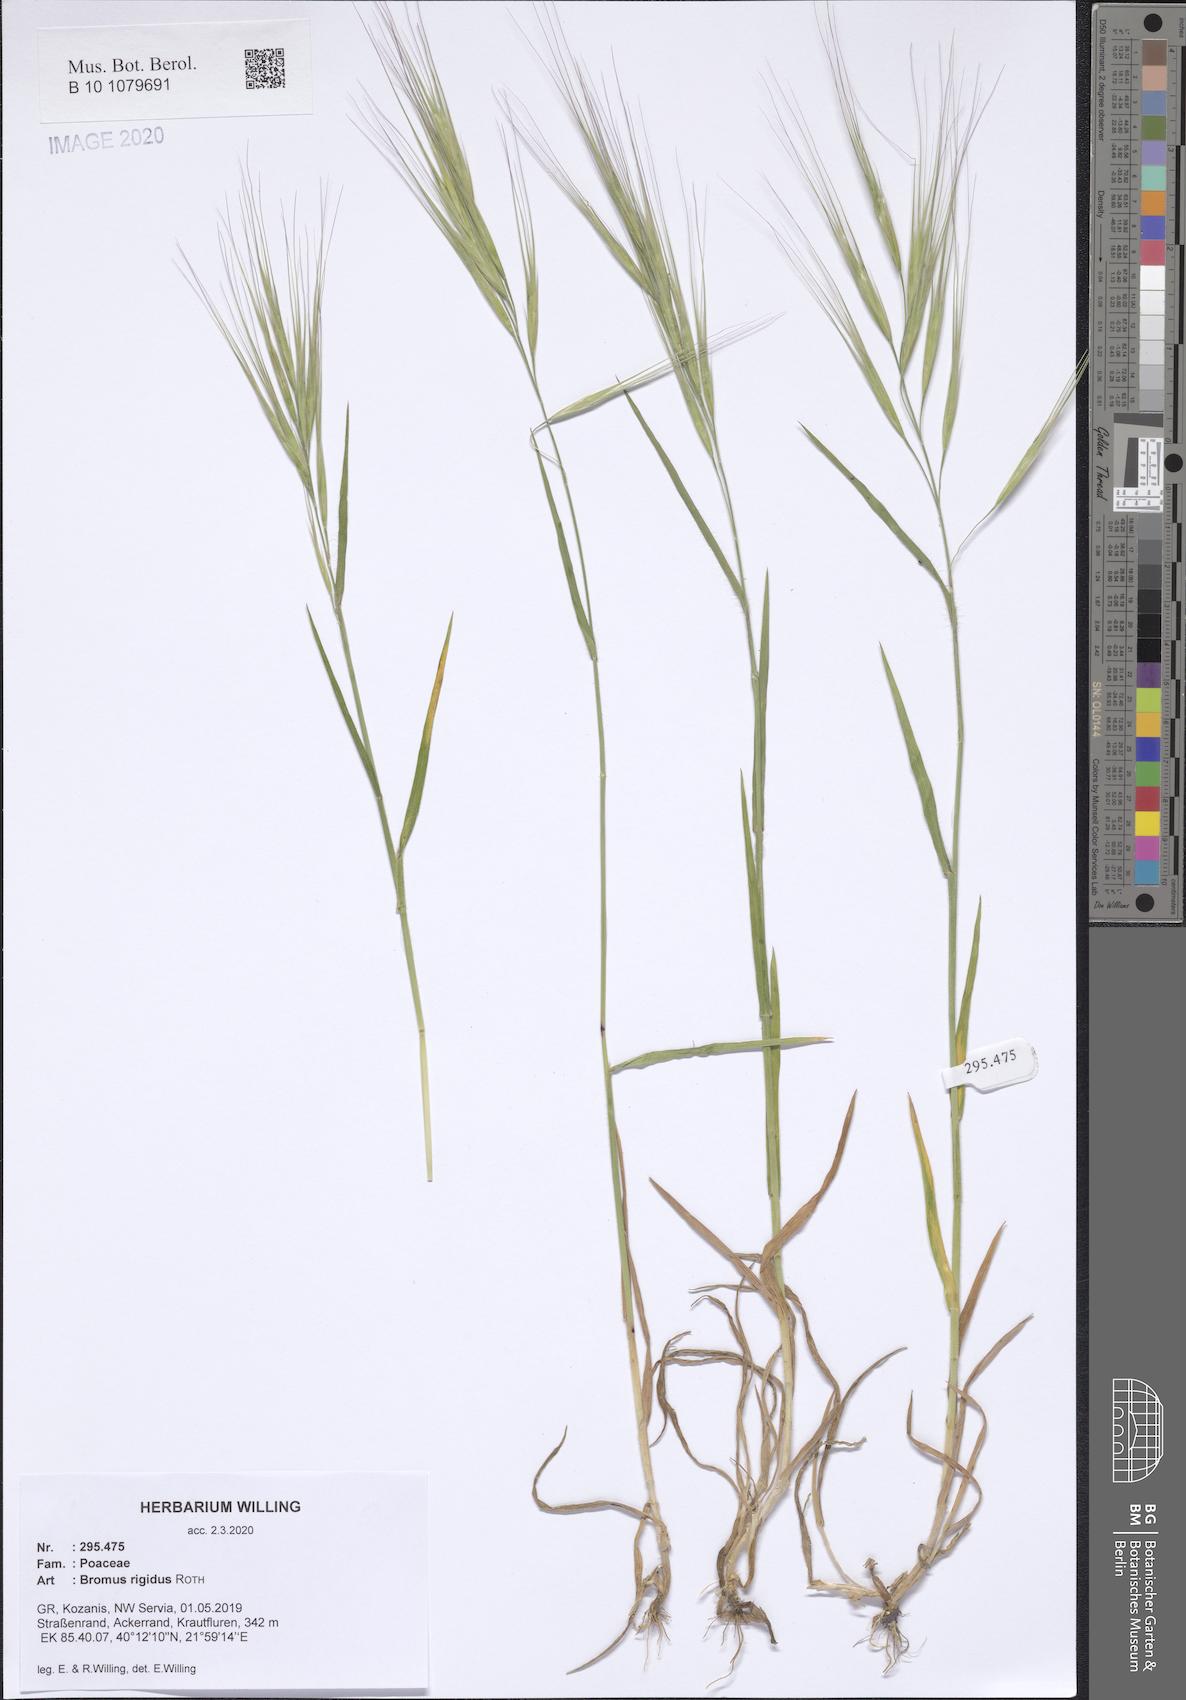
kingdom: Plantae
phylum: Tracheophyta
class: Liliopsida
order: Poales
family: Poaceae
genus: Bromus
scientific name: Bromus rigidus
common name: Ripgut brome
